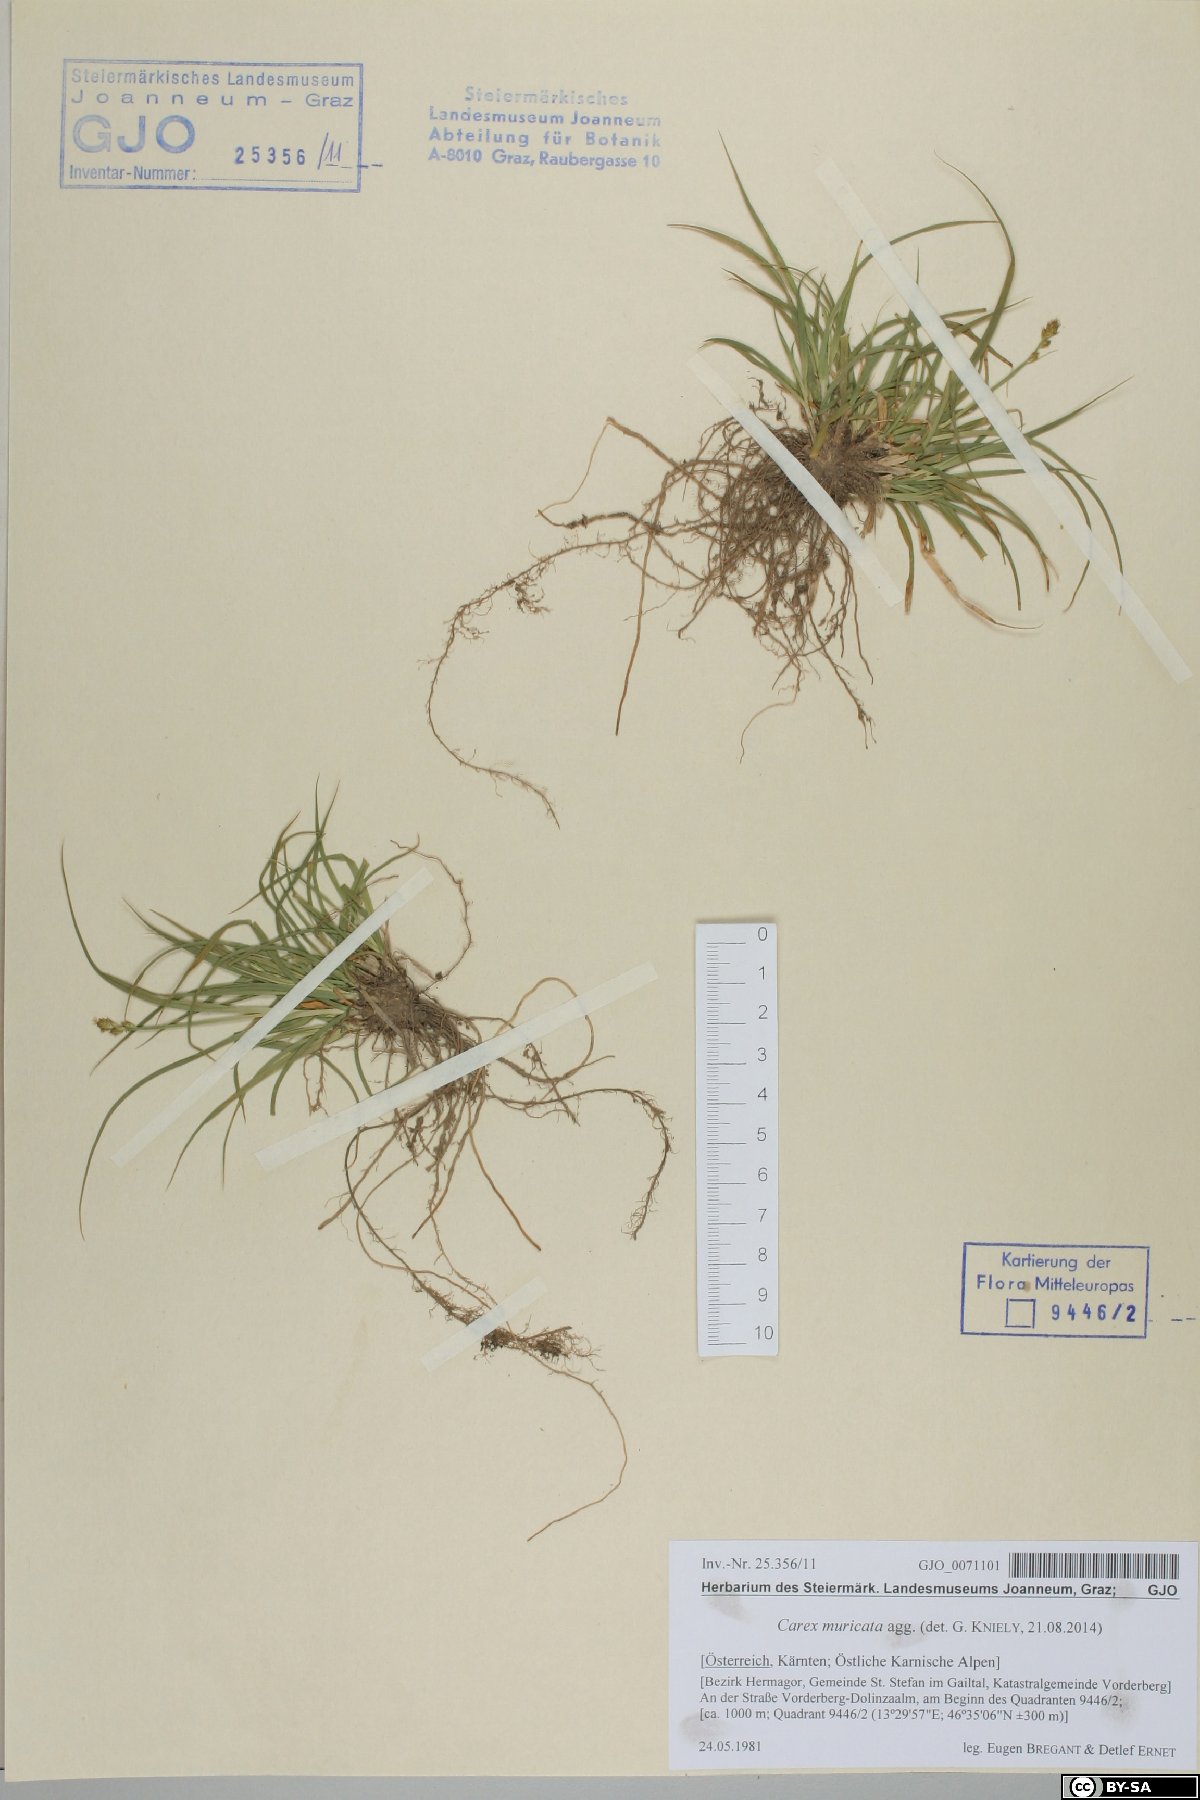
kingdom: Plantae
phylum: Tracheophyta
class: Liliopsida
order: Poales
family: Cyperaceae
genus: Carex
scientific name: Carex muricata
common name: Rough sedge
